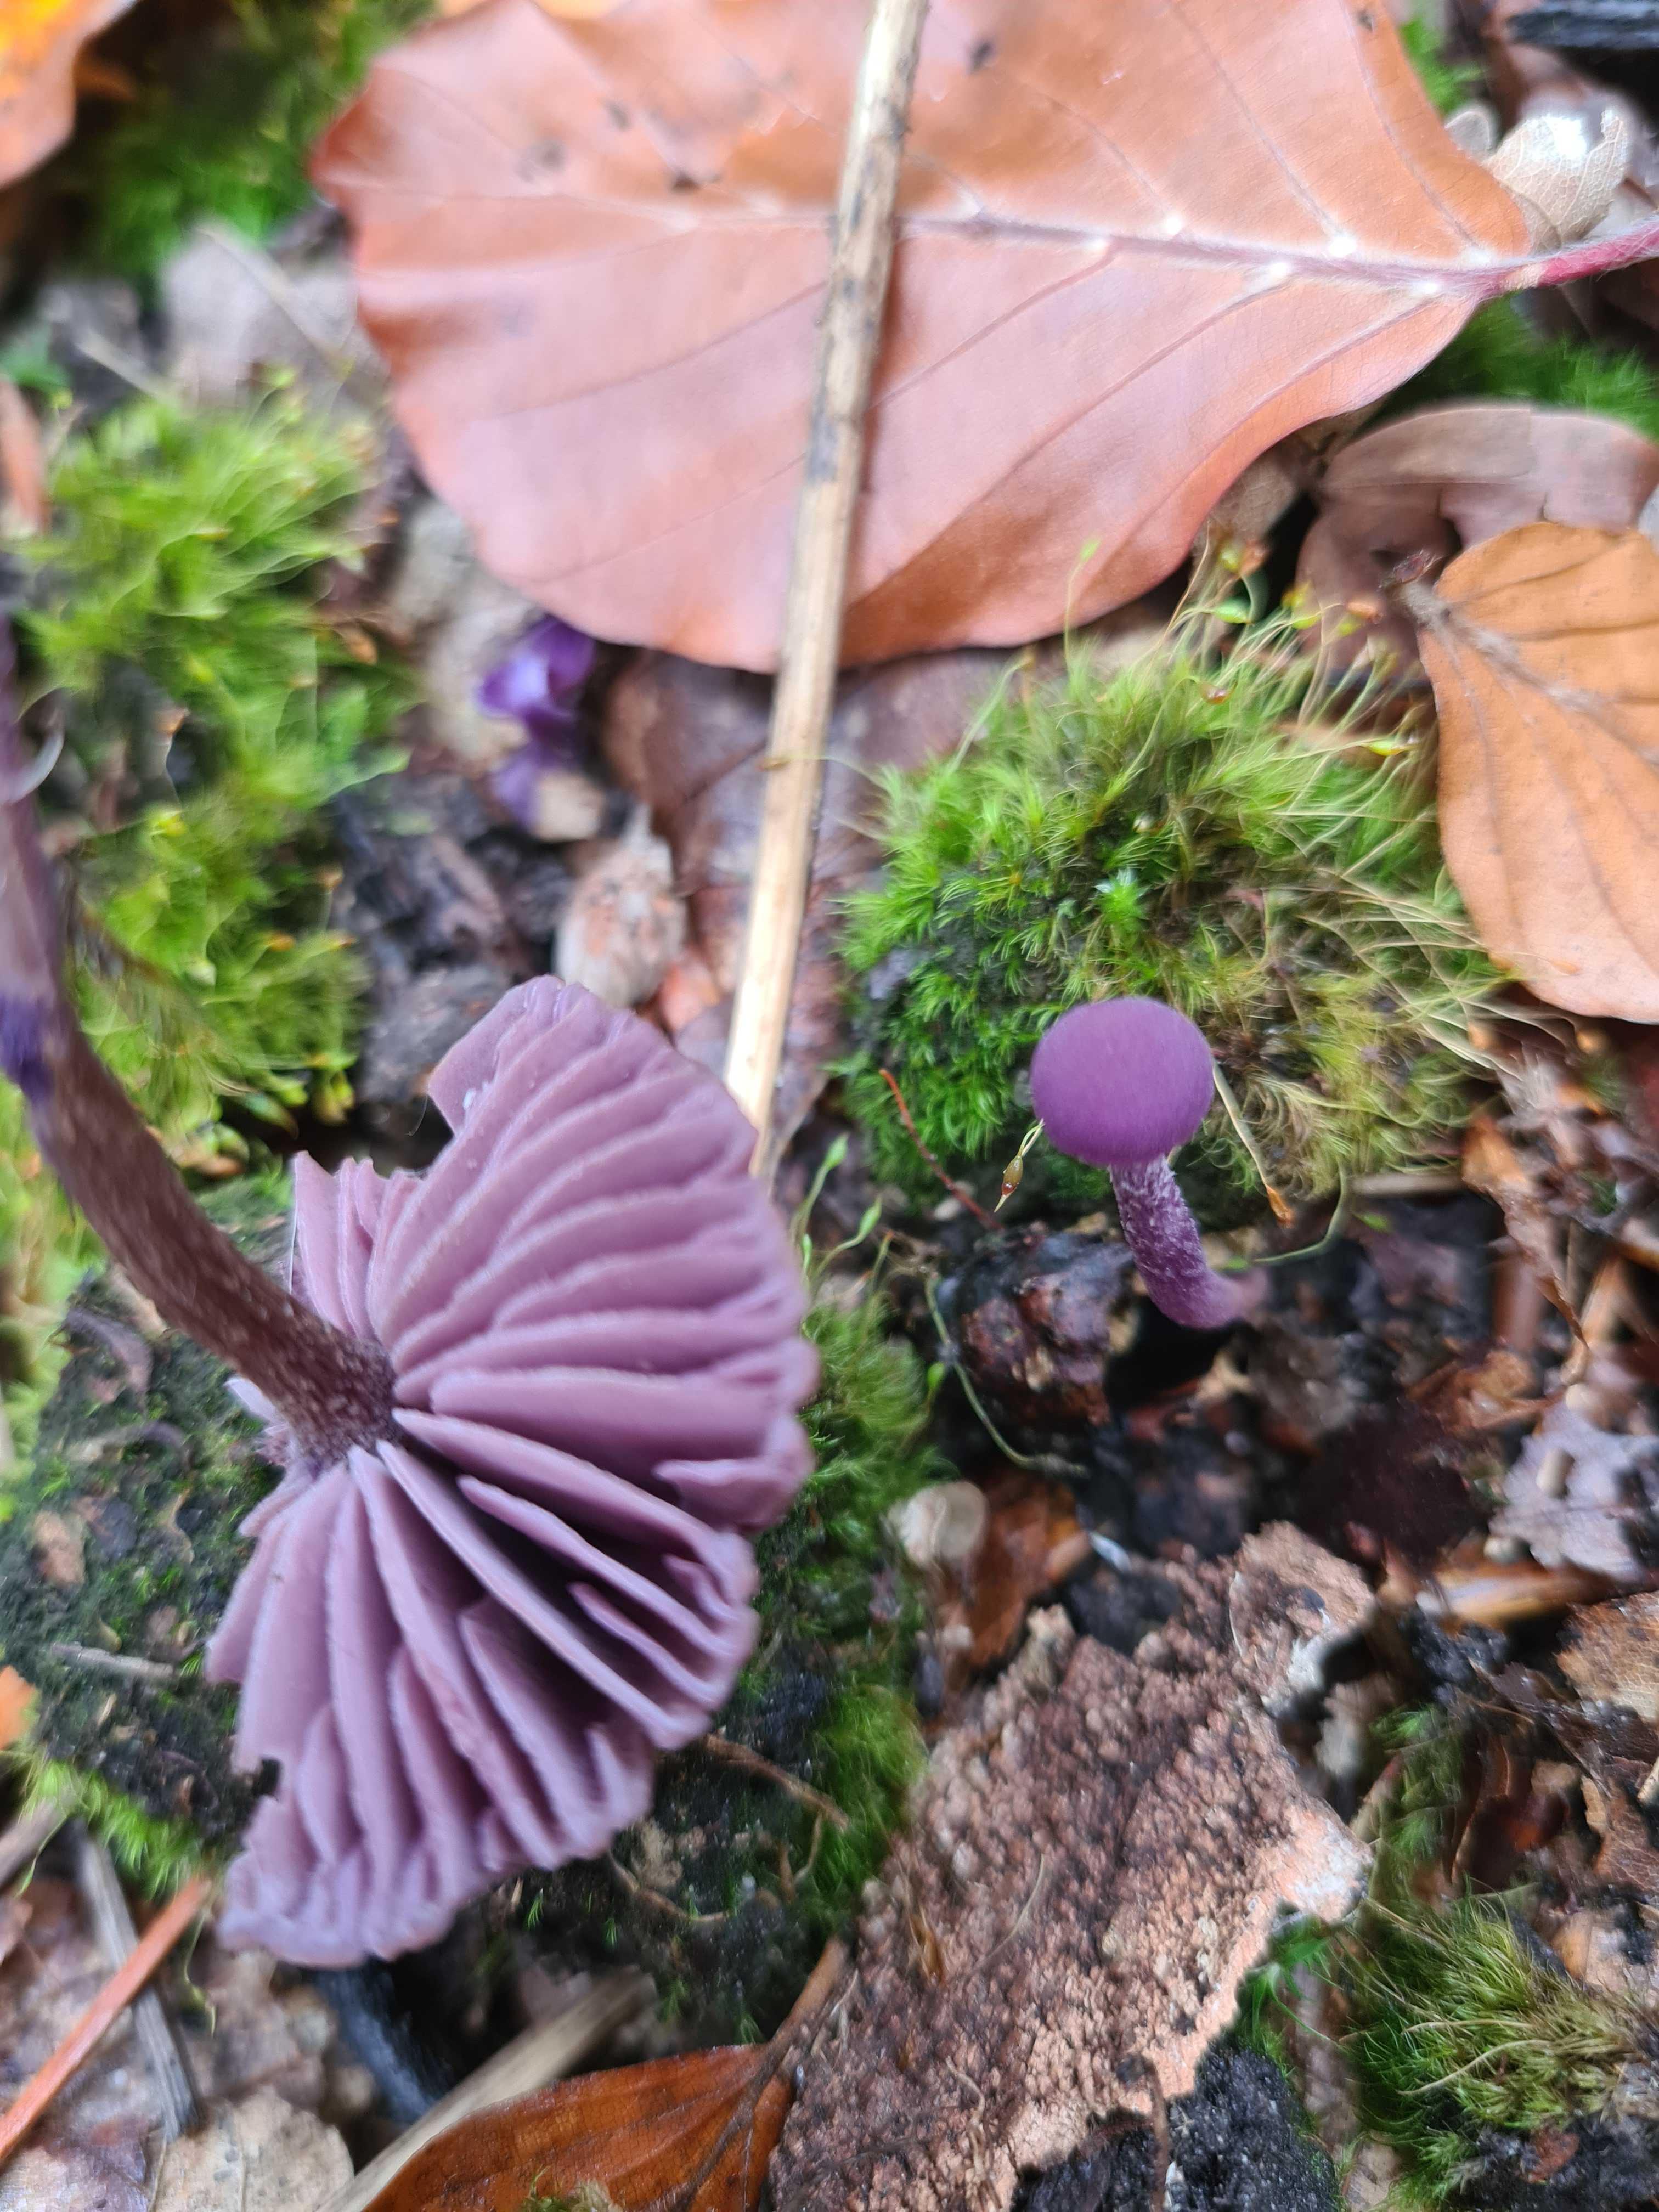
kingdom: Fungi
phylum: Basidiomycota
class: Agaricomycetes
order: Agaricales
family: Hydnangiaceae
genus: Laccaria
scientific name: Laccaria amethystina
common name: violet ametysthat
